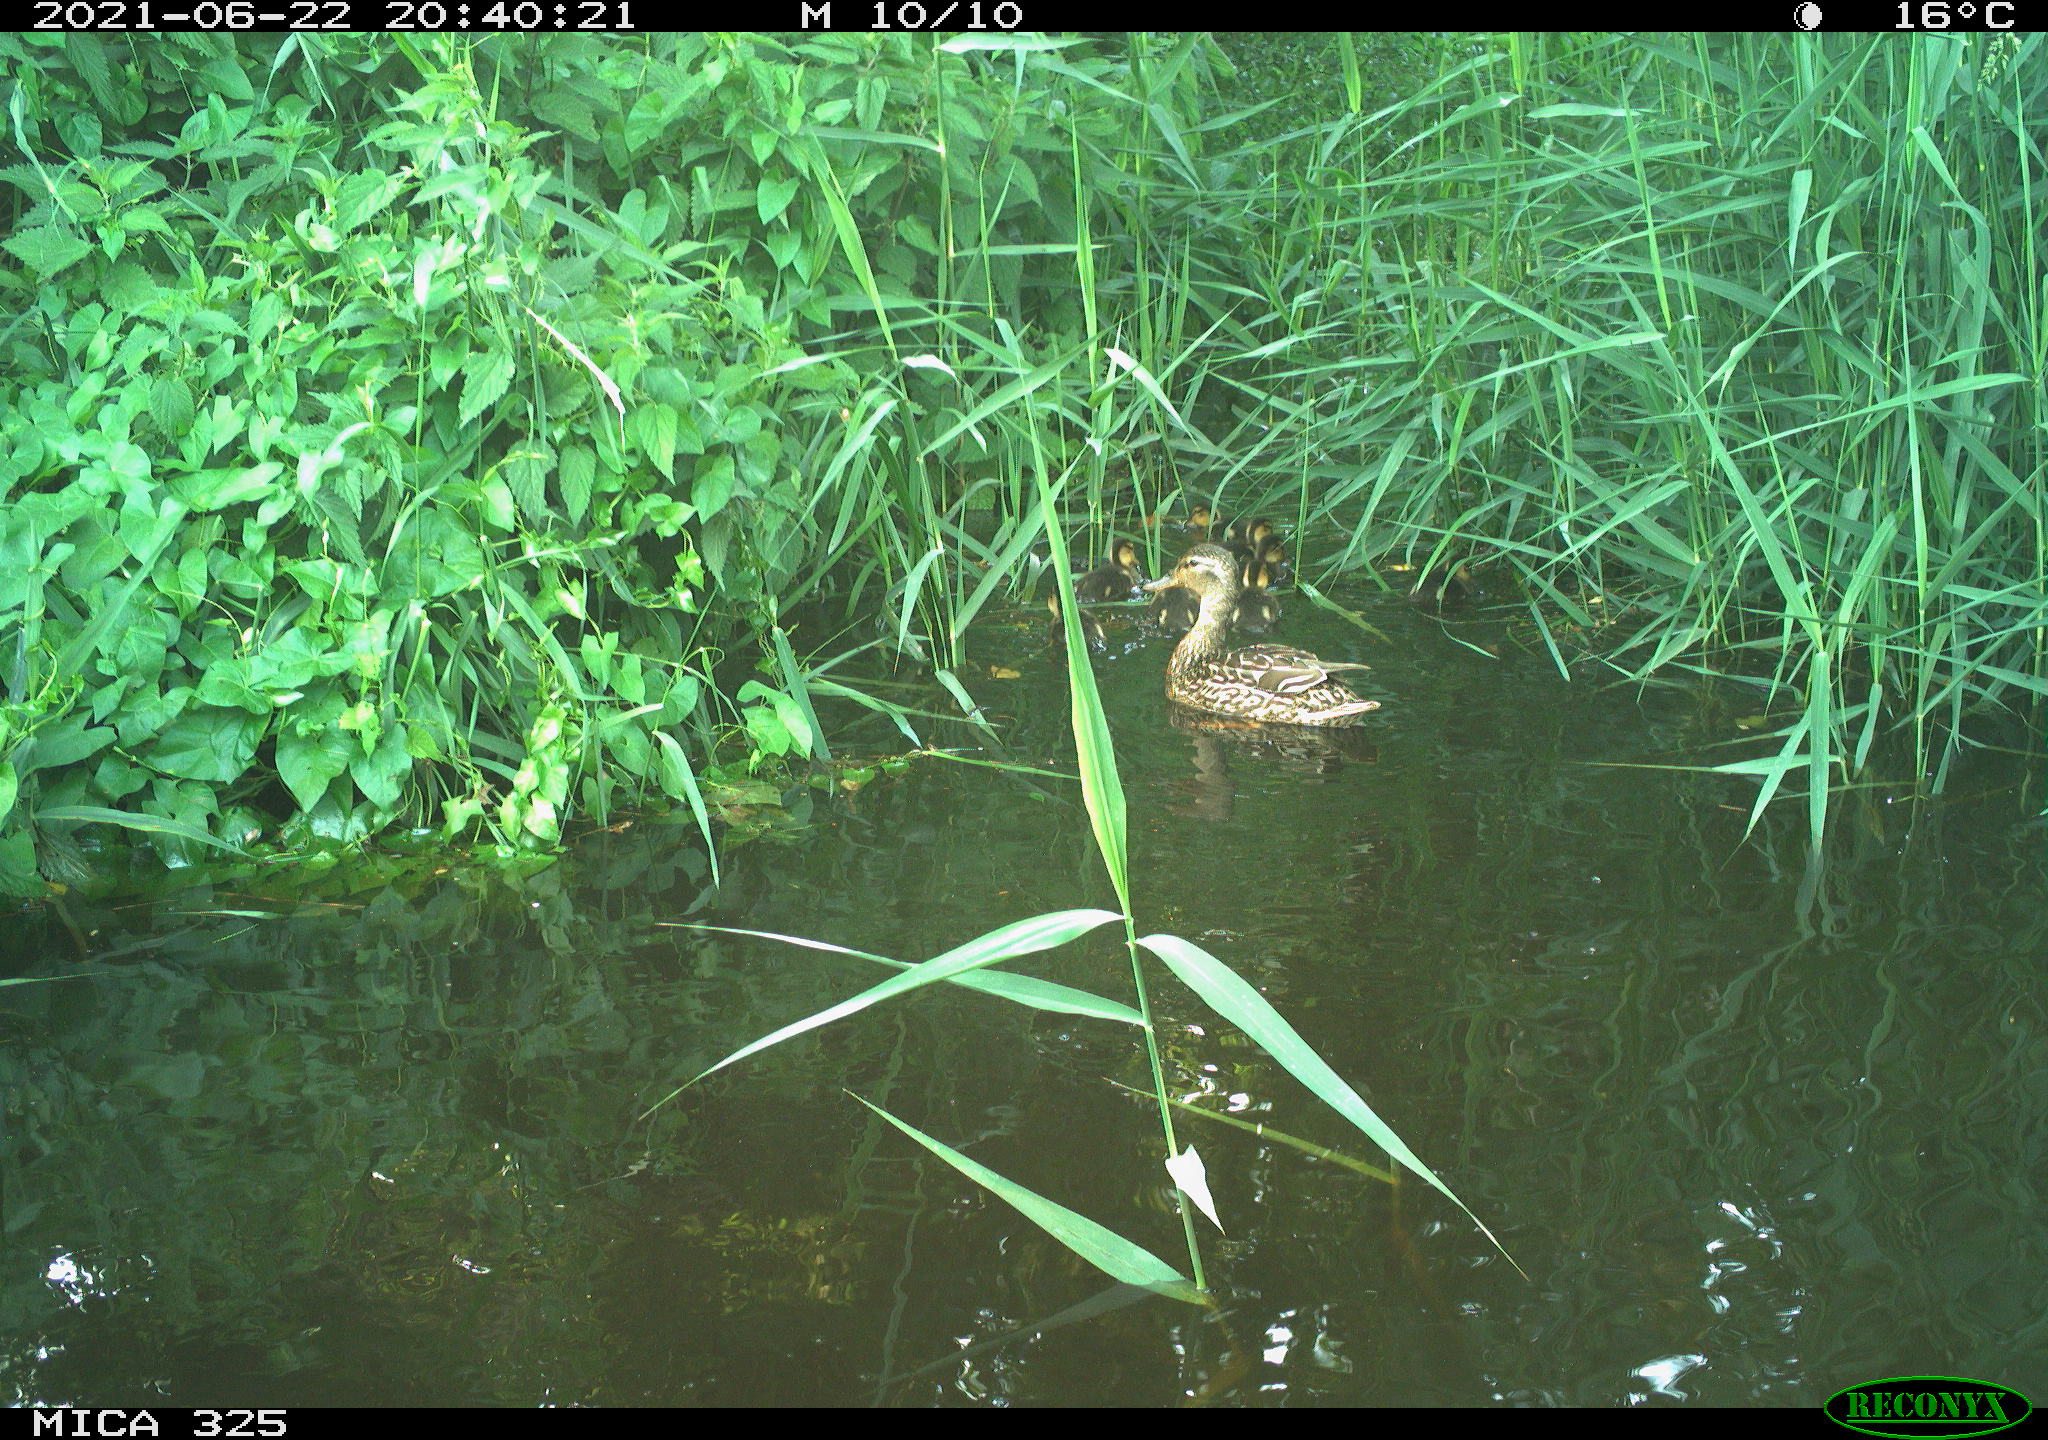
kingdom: Animalia
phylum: Chordata
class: Aves
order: Anseriformes
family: Anatidae
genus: Anas
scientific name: Anas platyrhynchos
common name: Mallard
